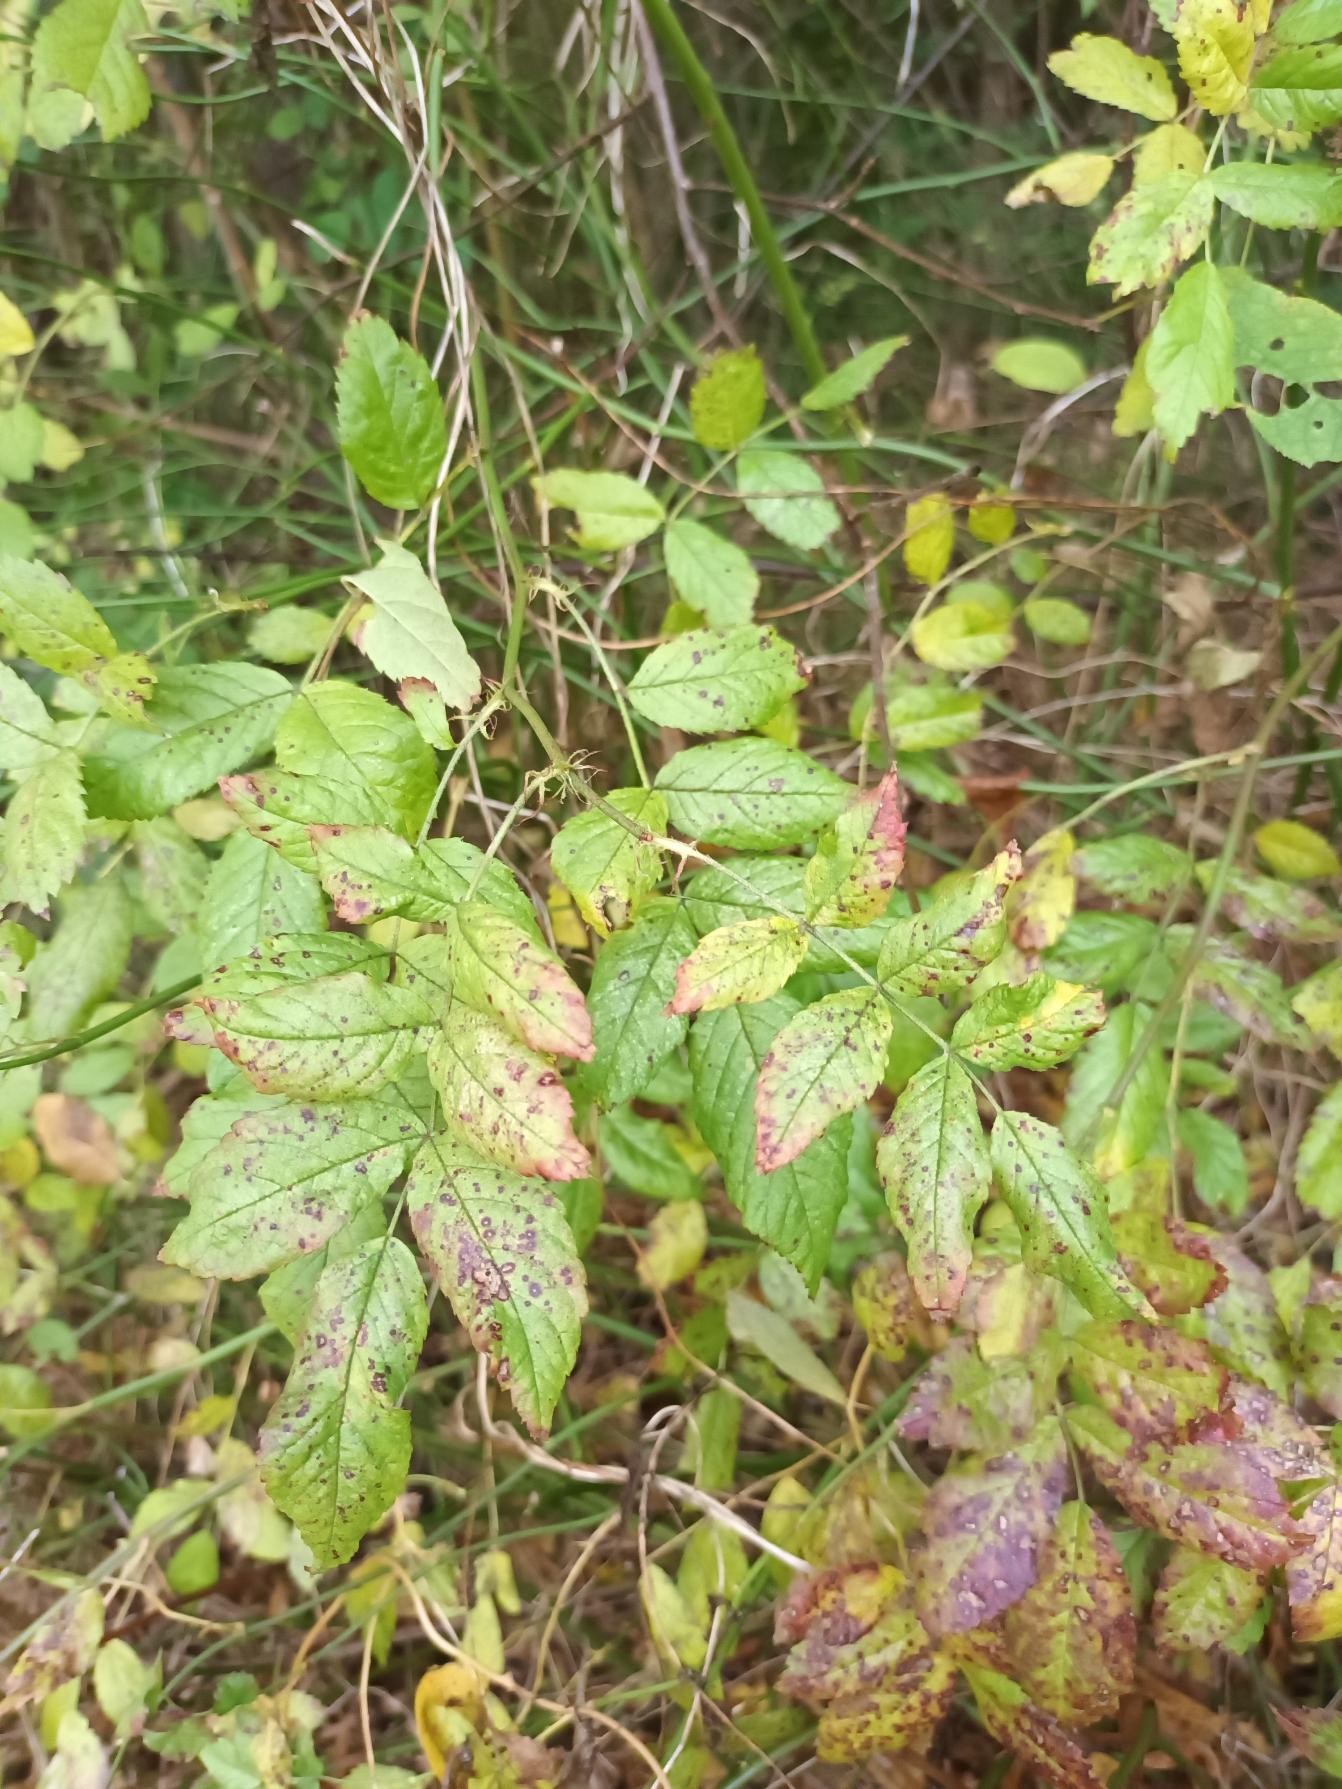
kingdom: Plantae
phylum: Tracheophyta
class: Magnoliopsida
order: Rosales
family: Rosaceae
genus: Rosa
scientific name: Rosa multiflora
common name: Mangeblomstret rose
